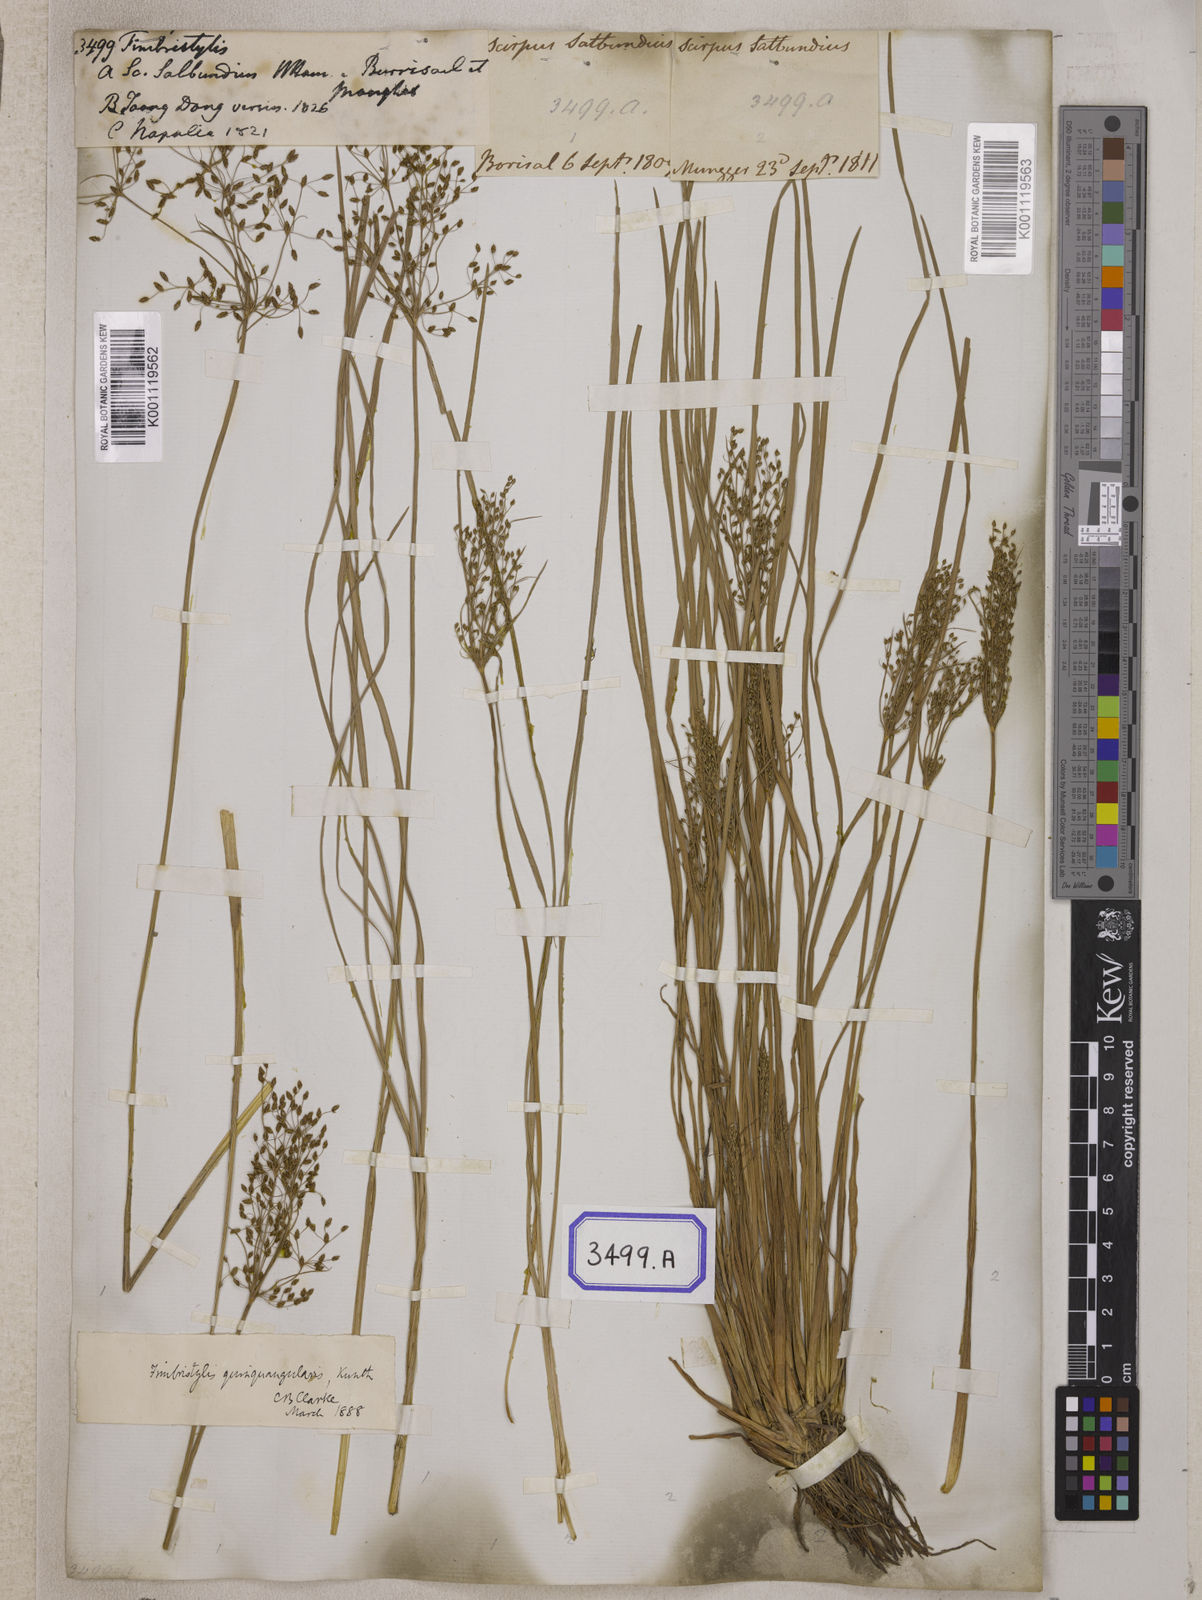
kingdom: Plantae
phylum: Tracheophyta
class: Liliopsida
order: Poales
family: Cyperaceae
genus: Fimbristylis
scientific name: Fimbristylis
